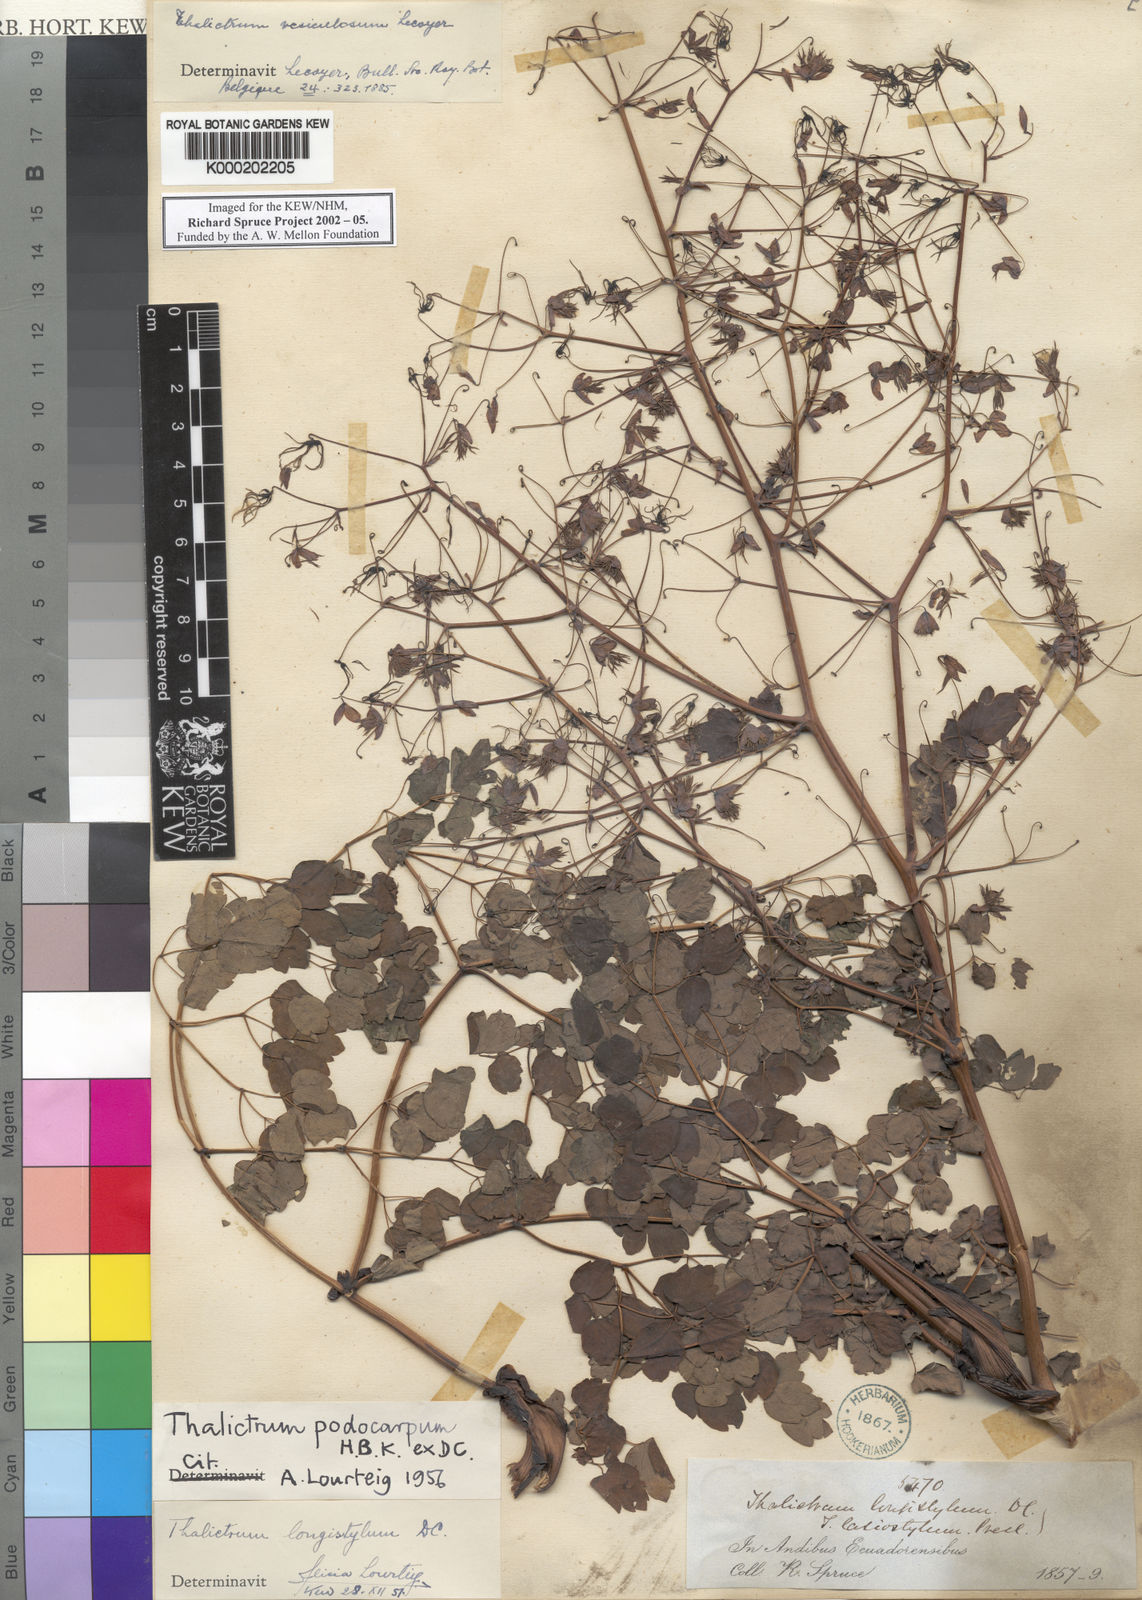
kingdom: Plantae
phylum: Tracheophyta
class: Magnoliopsida
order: Ranunculales
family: Ranunculaceae
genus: Thalictrum
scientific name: Thalictrum podocarpum
